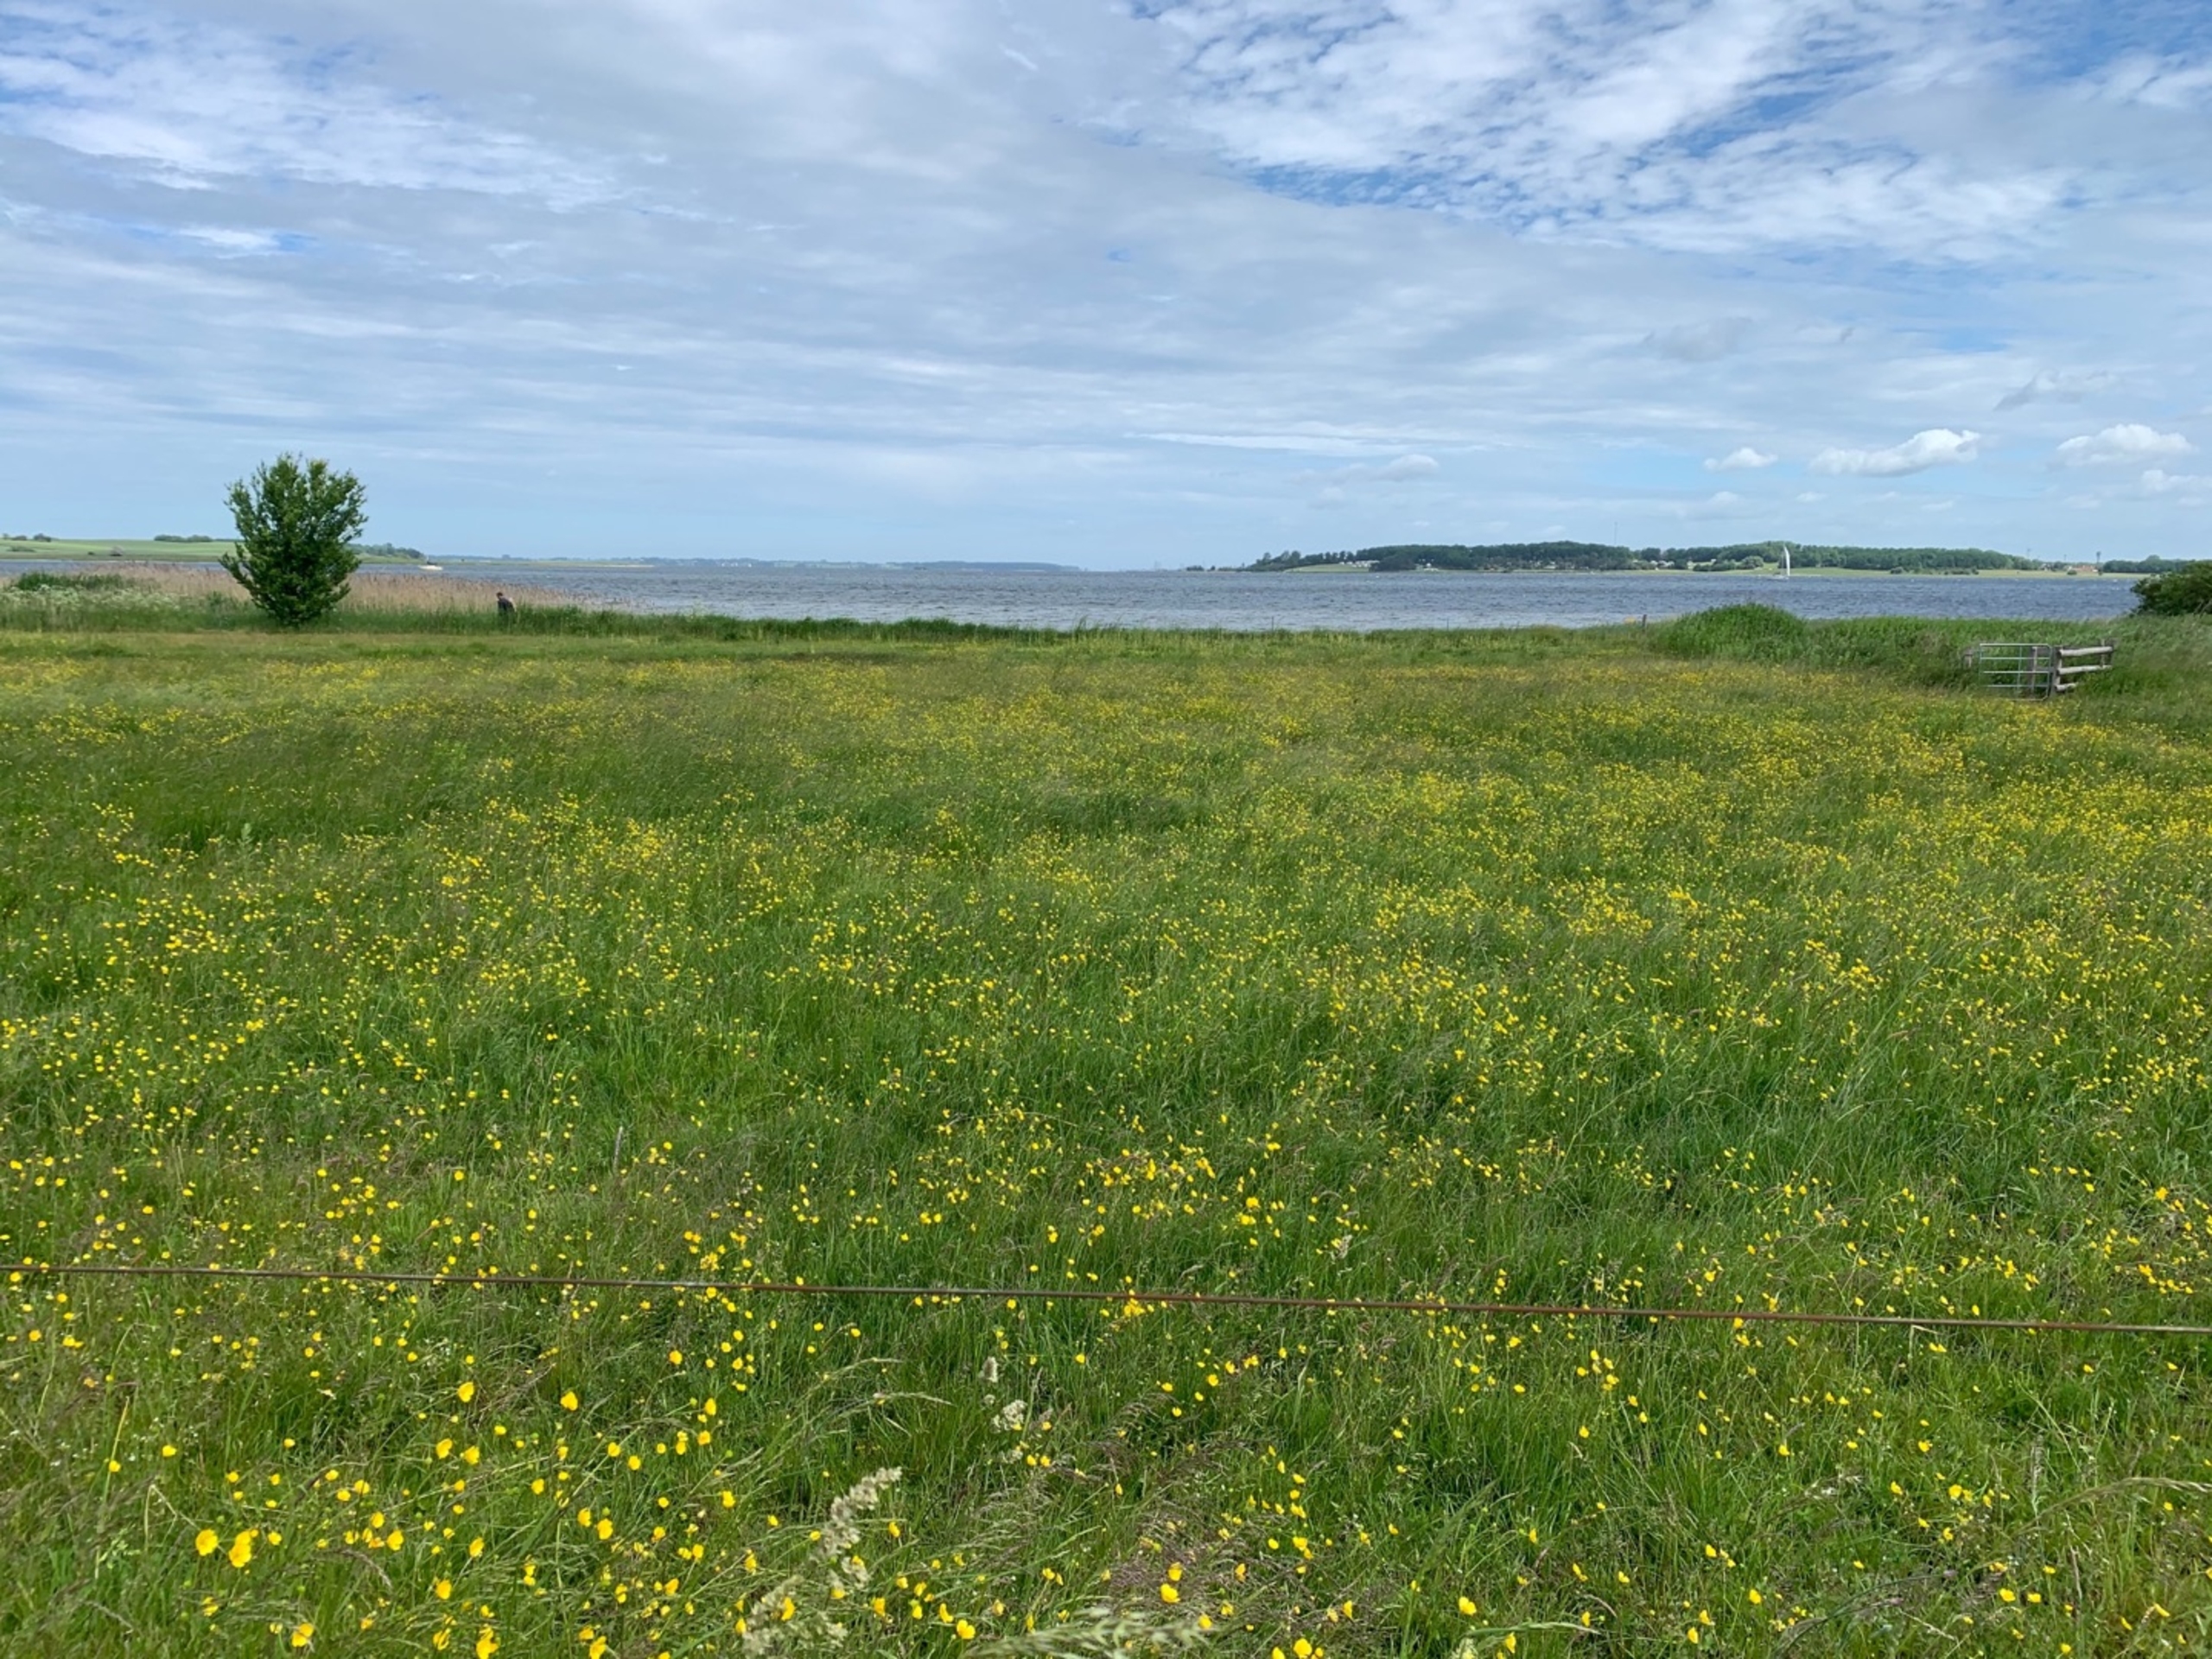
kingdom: Plantae
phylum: Tracheophyta
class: Magnoliopsida
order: Ranunculales
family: Ranunculaceae
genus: Ranunculus
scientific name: Ranunculus acris
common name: Bidende ranunkel
